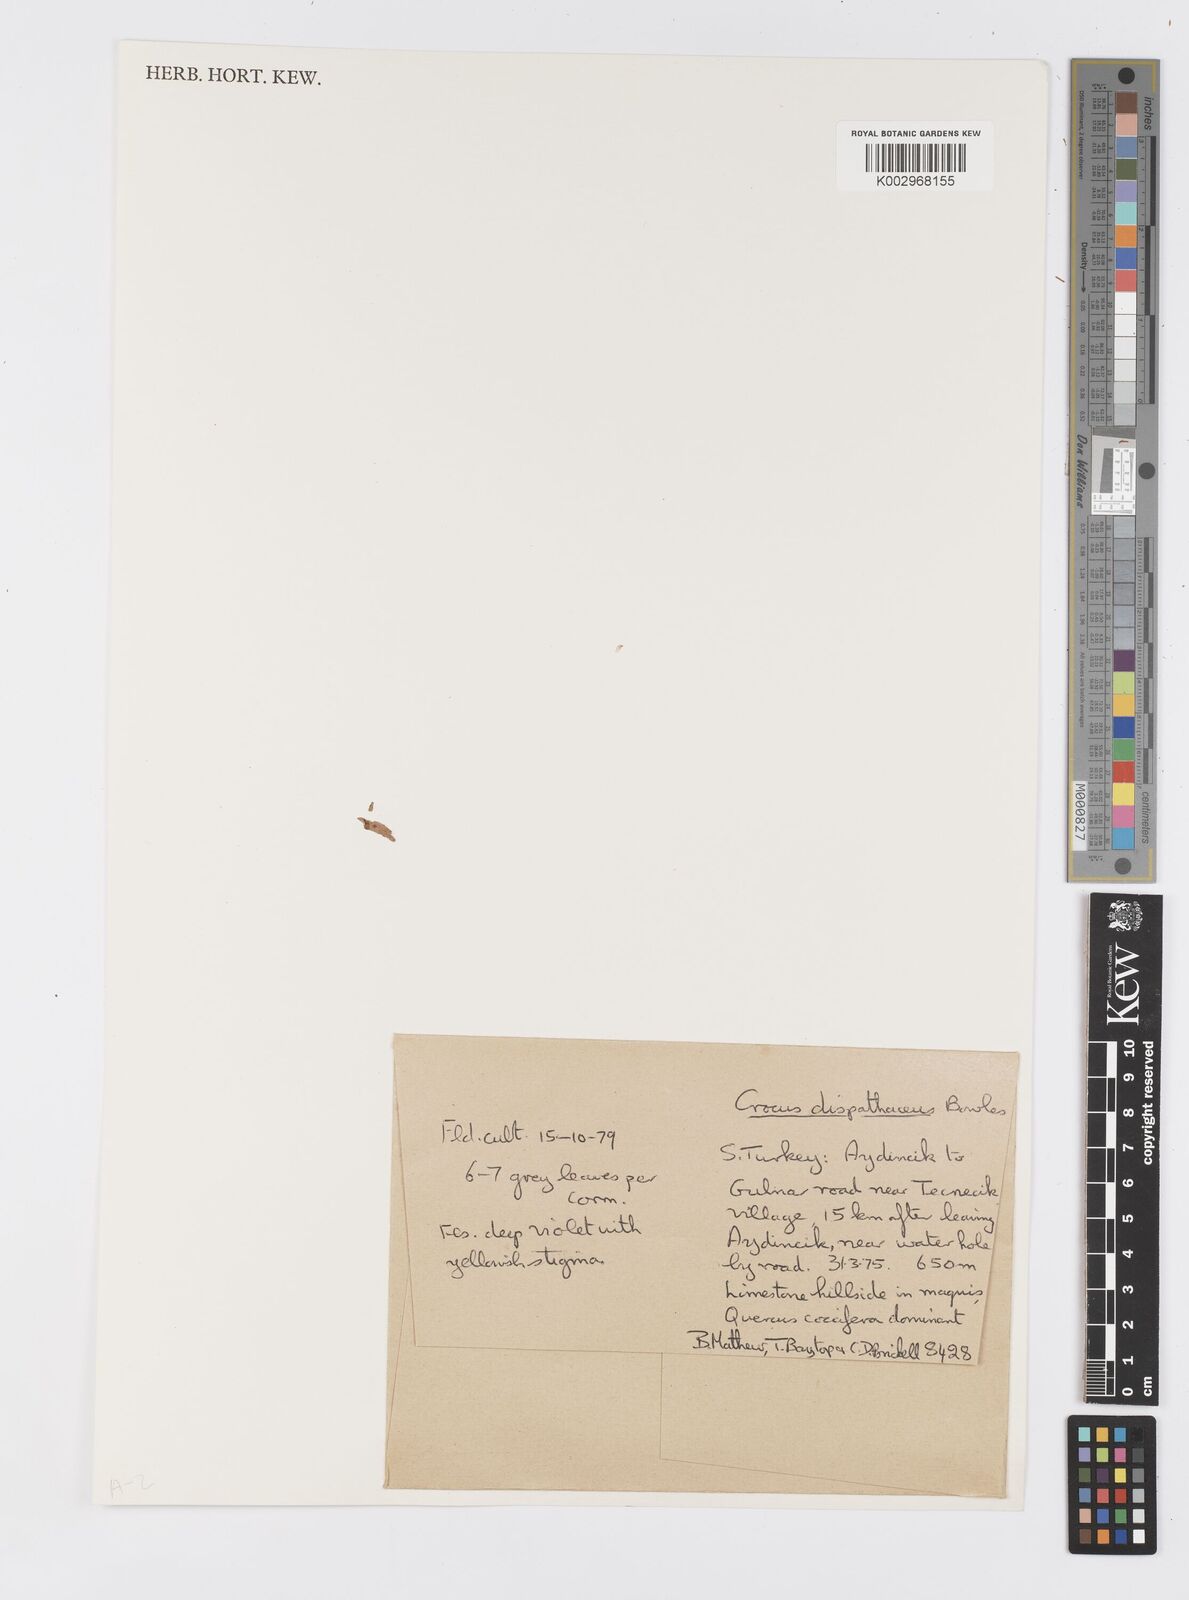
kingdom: Plantae
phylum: Tracheophyta
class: Liliopsida
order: Asparagales
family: Iridaceae
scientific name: Iridaceae
